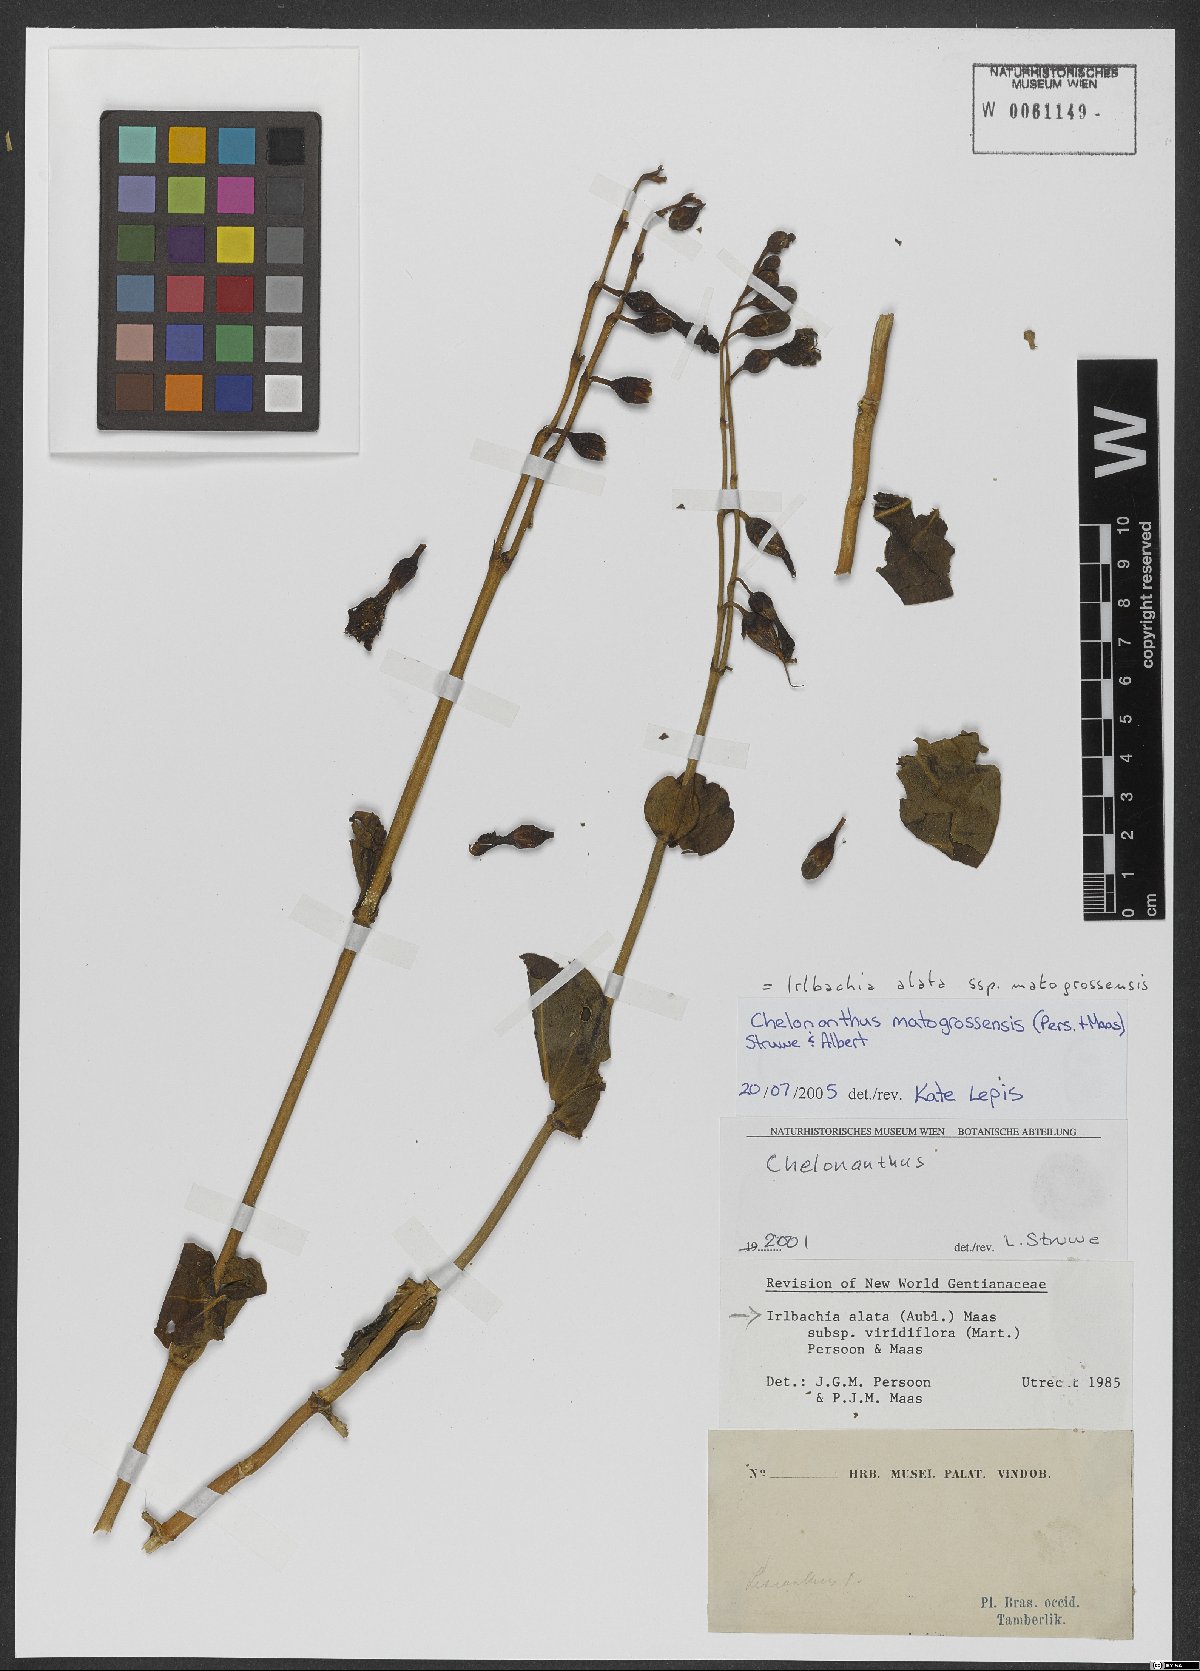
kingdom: Plantae
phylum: Tracheophyta
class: Magnoliopsida
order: Gentianales
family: Gentianaceae
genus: Chelonanthus
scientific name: Chelonanthus matogrossensis
